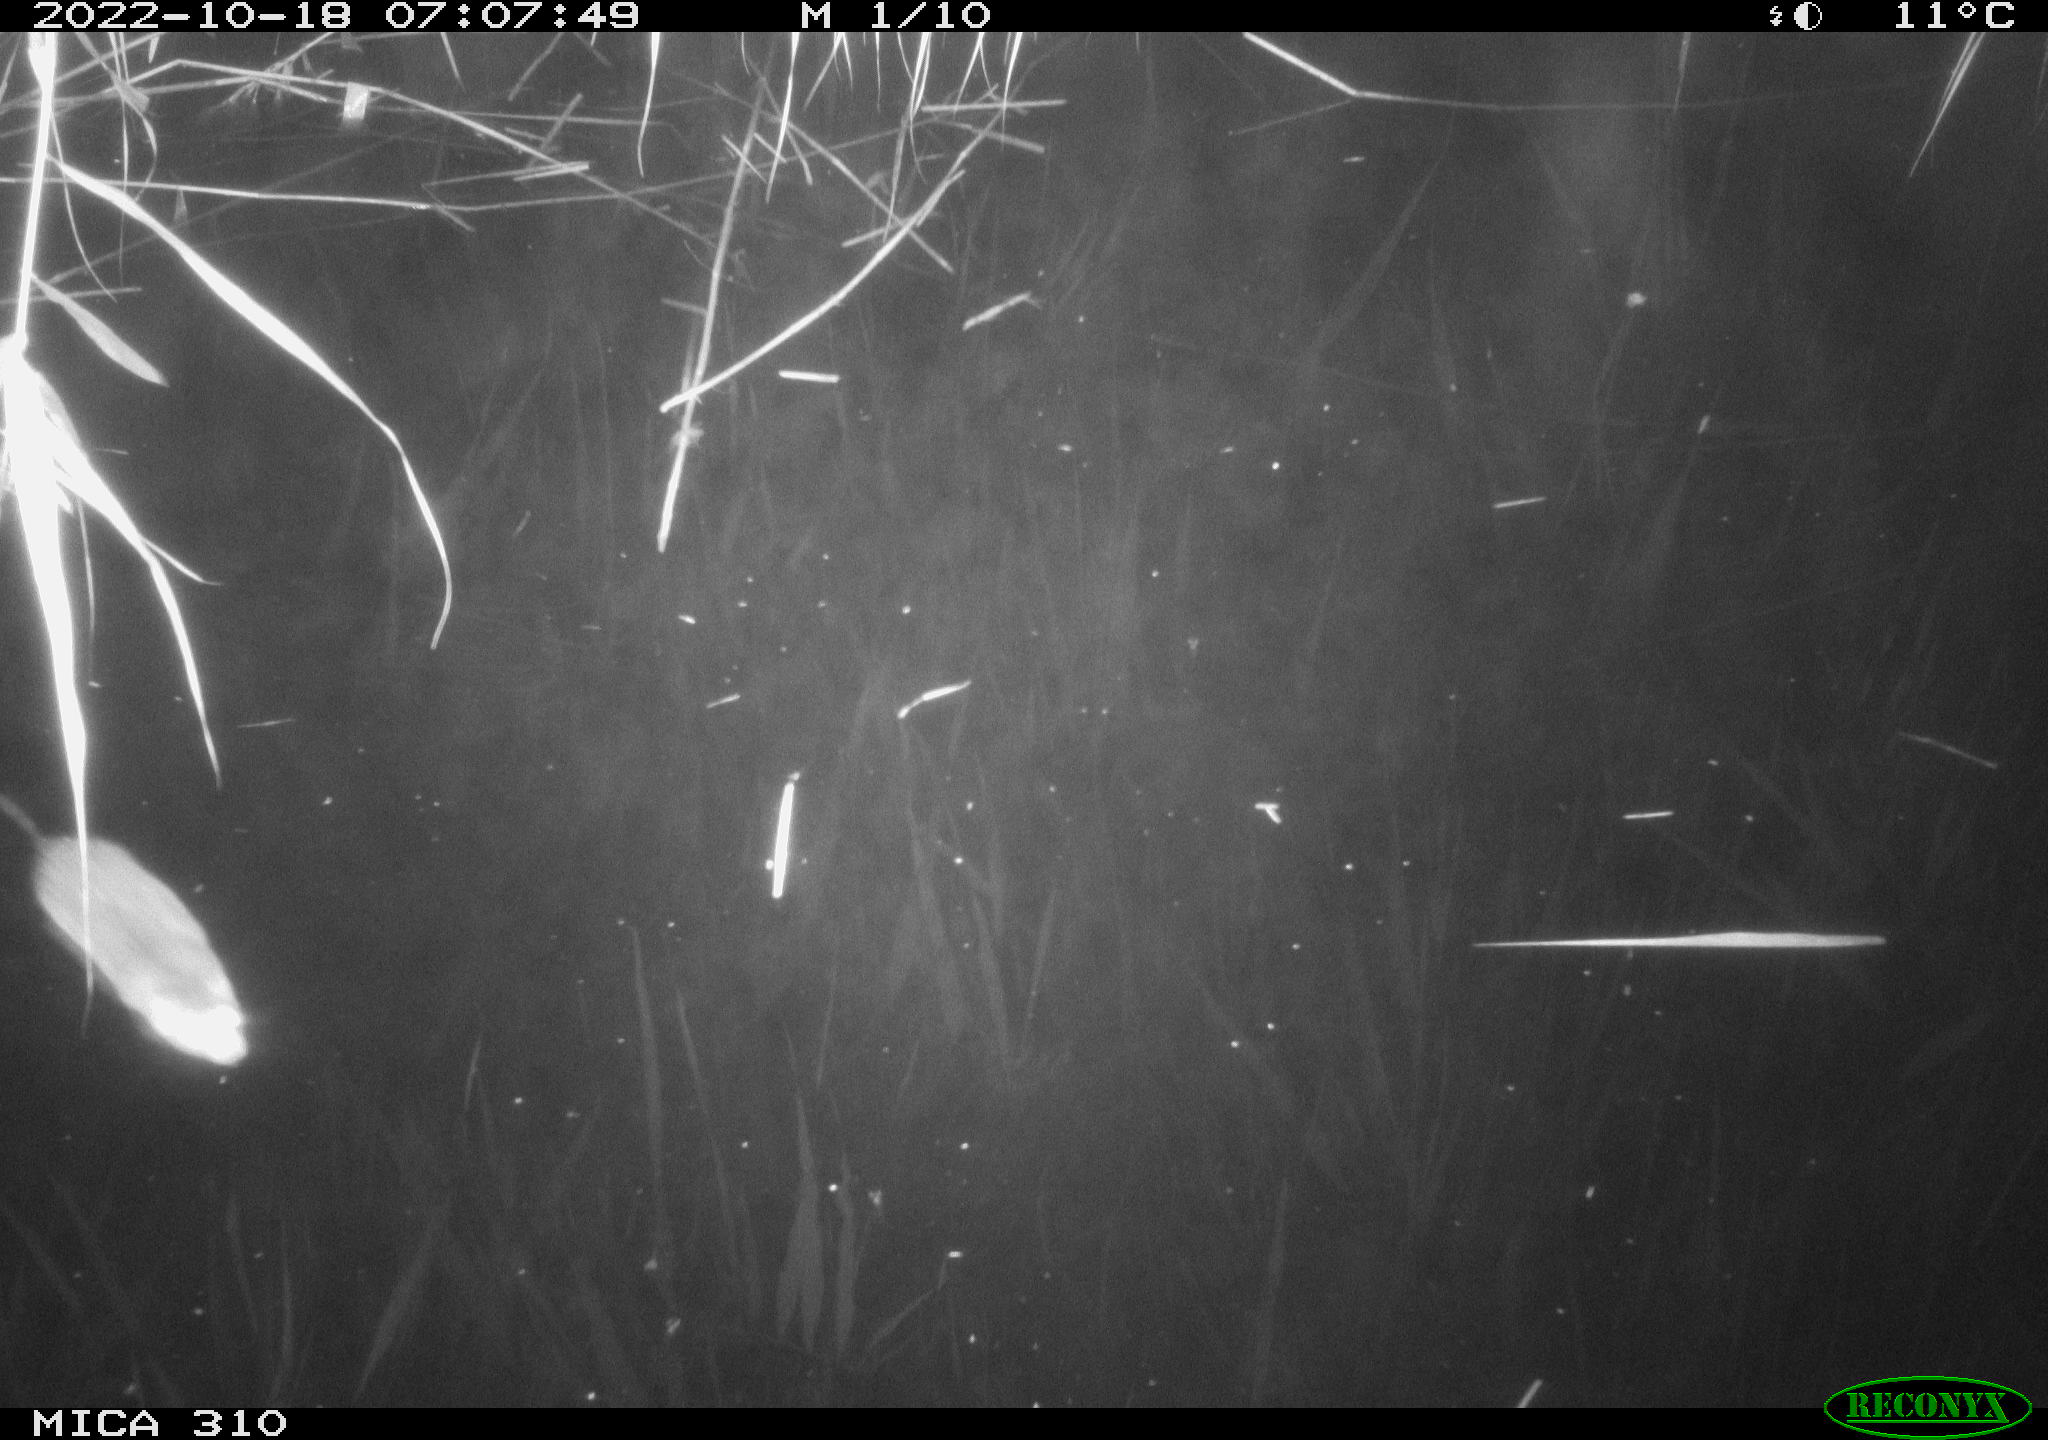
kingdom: Animalia
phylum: Chordata
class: Mammalia
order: Rodentia
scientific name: Rodentia
